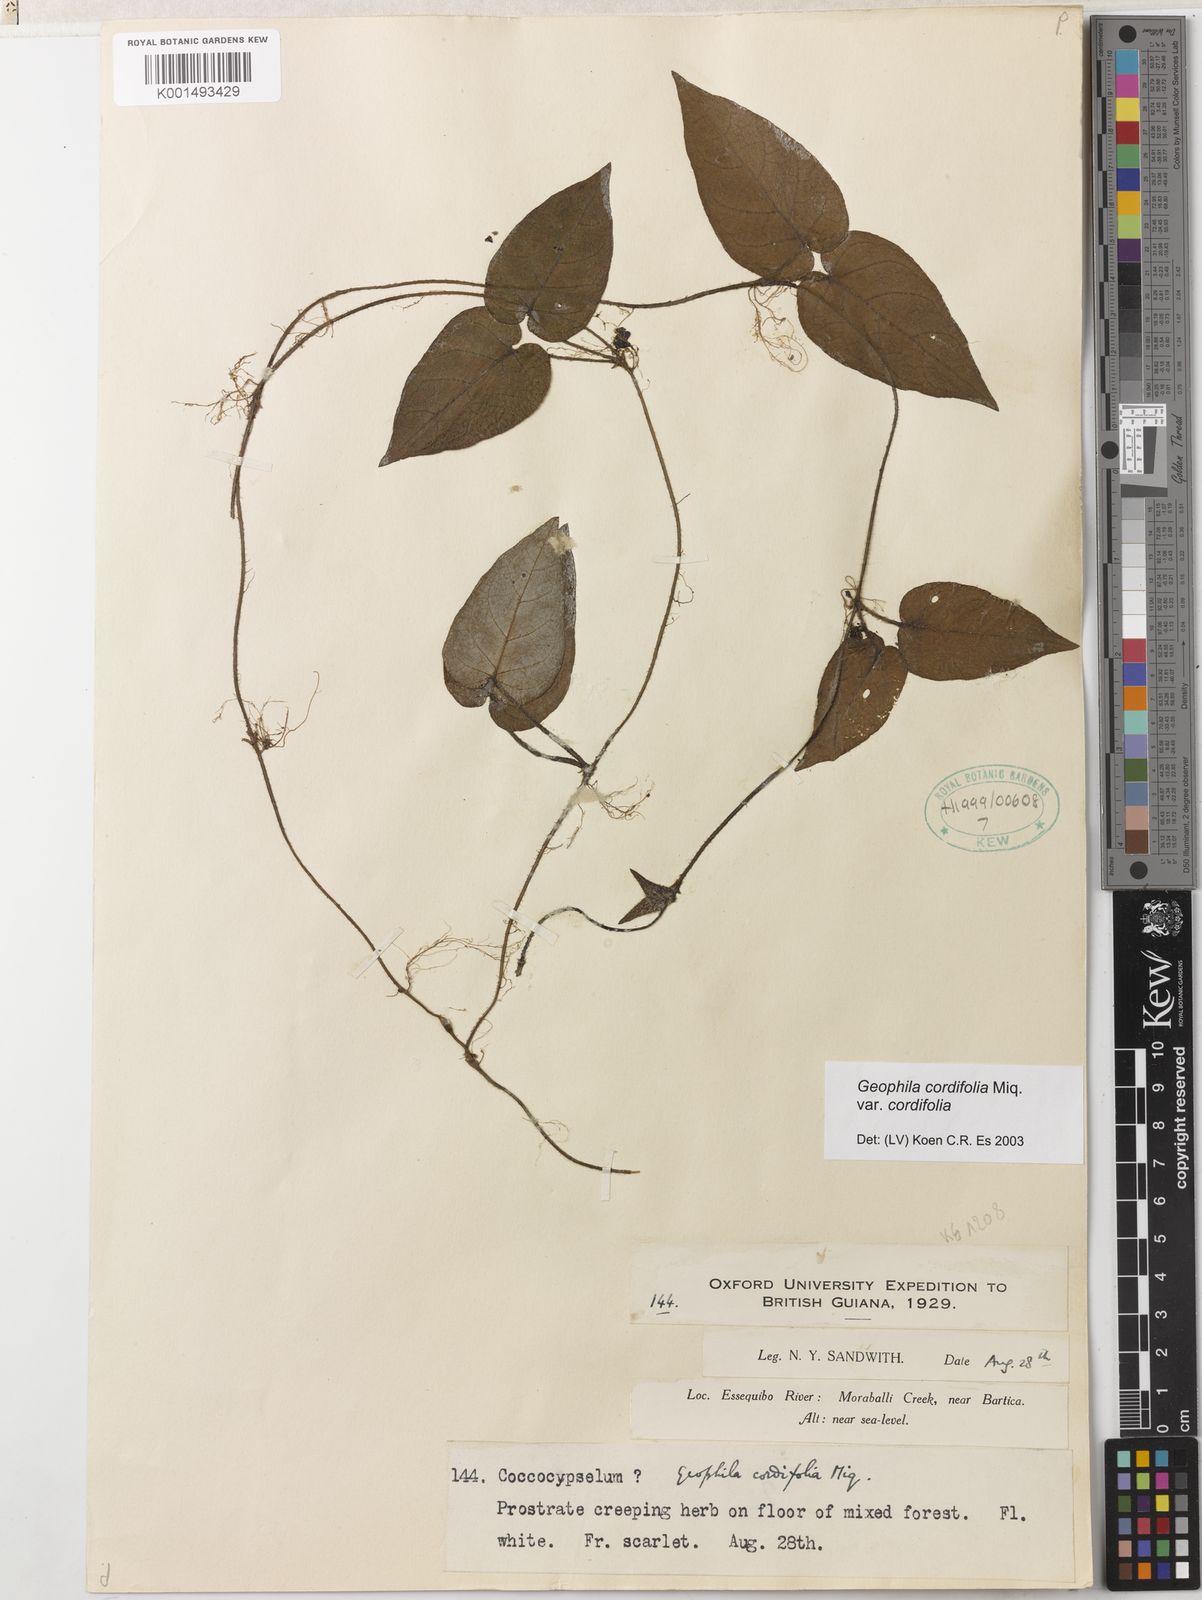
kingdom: Plantae
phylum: Tracheophyta
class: Magnoliopsida
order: Gentianales
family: Rubiaceae
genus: Geophila
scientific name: Geophila cordifolia
